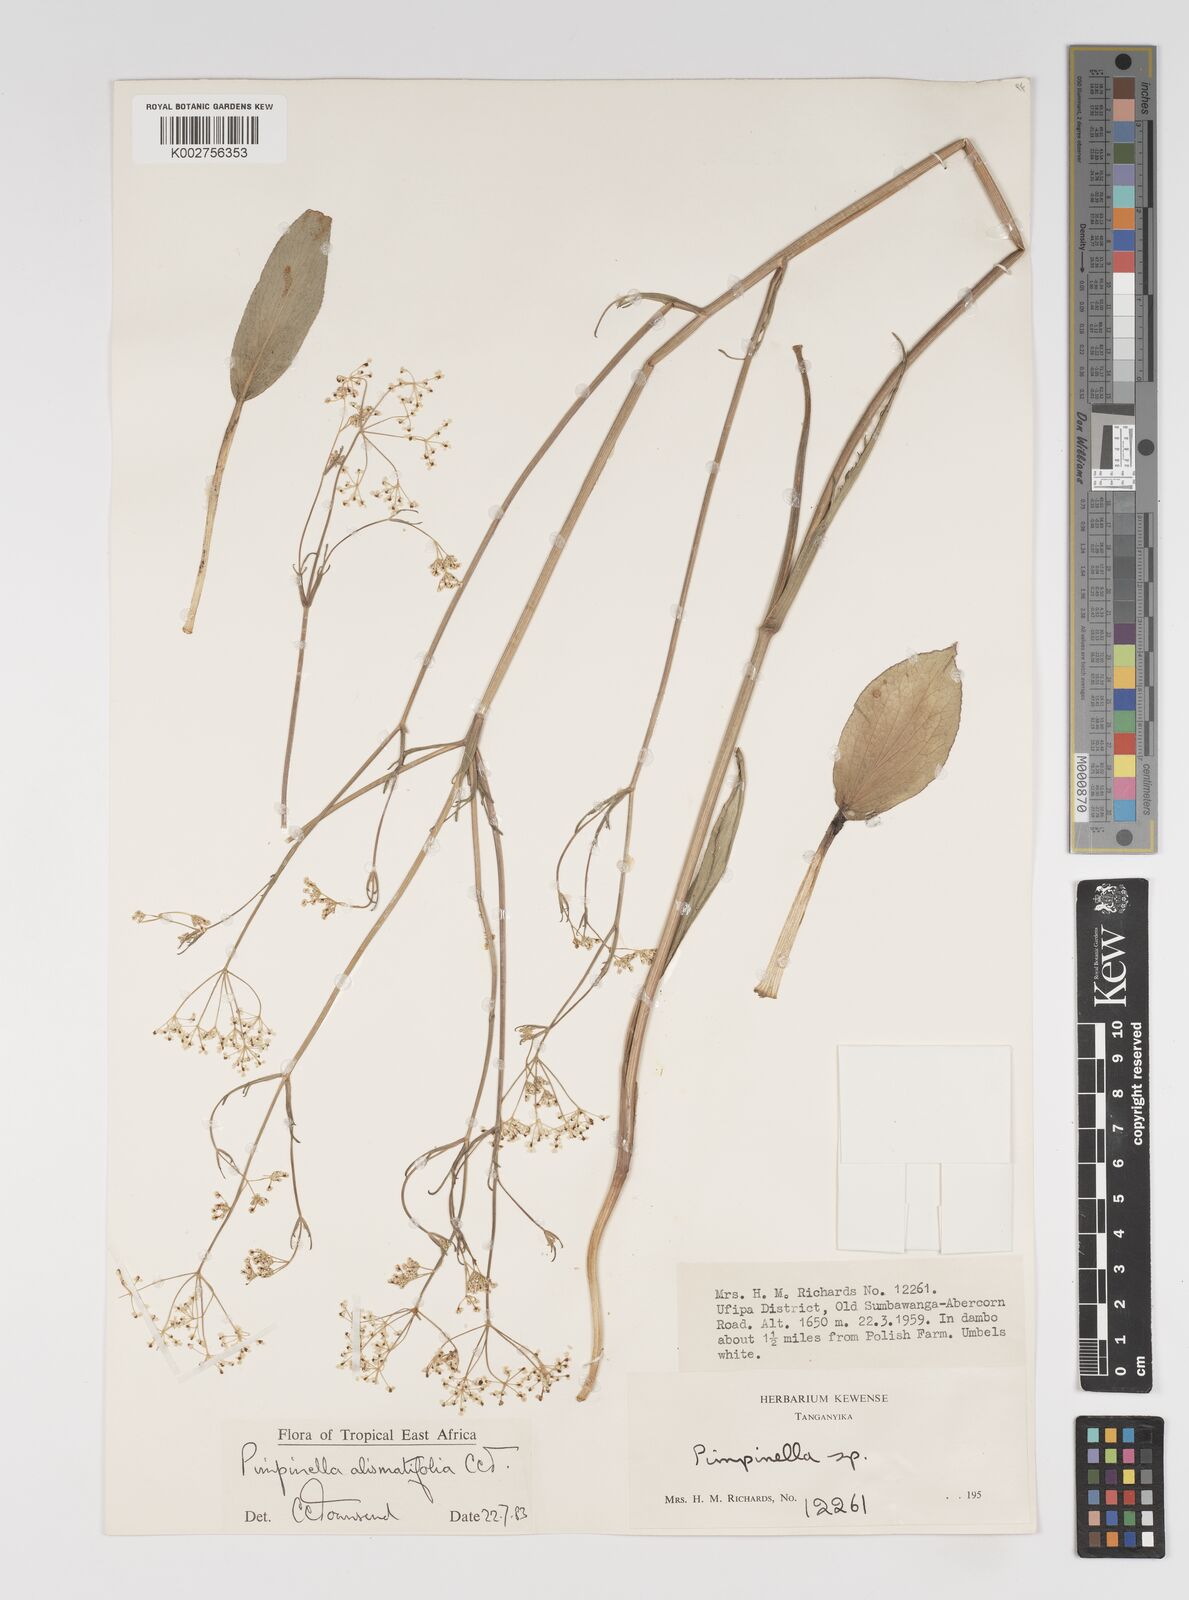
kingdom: Plantae
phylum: Tracheophyta
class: Magnoliopsida
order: Apiales
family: Apiaceae
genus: Pimpinella
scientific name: Pimpinella alismatifolia
